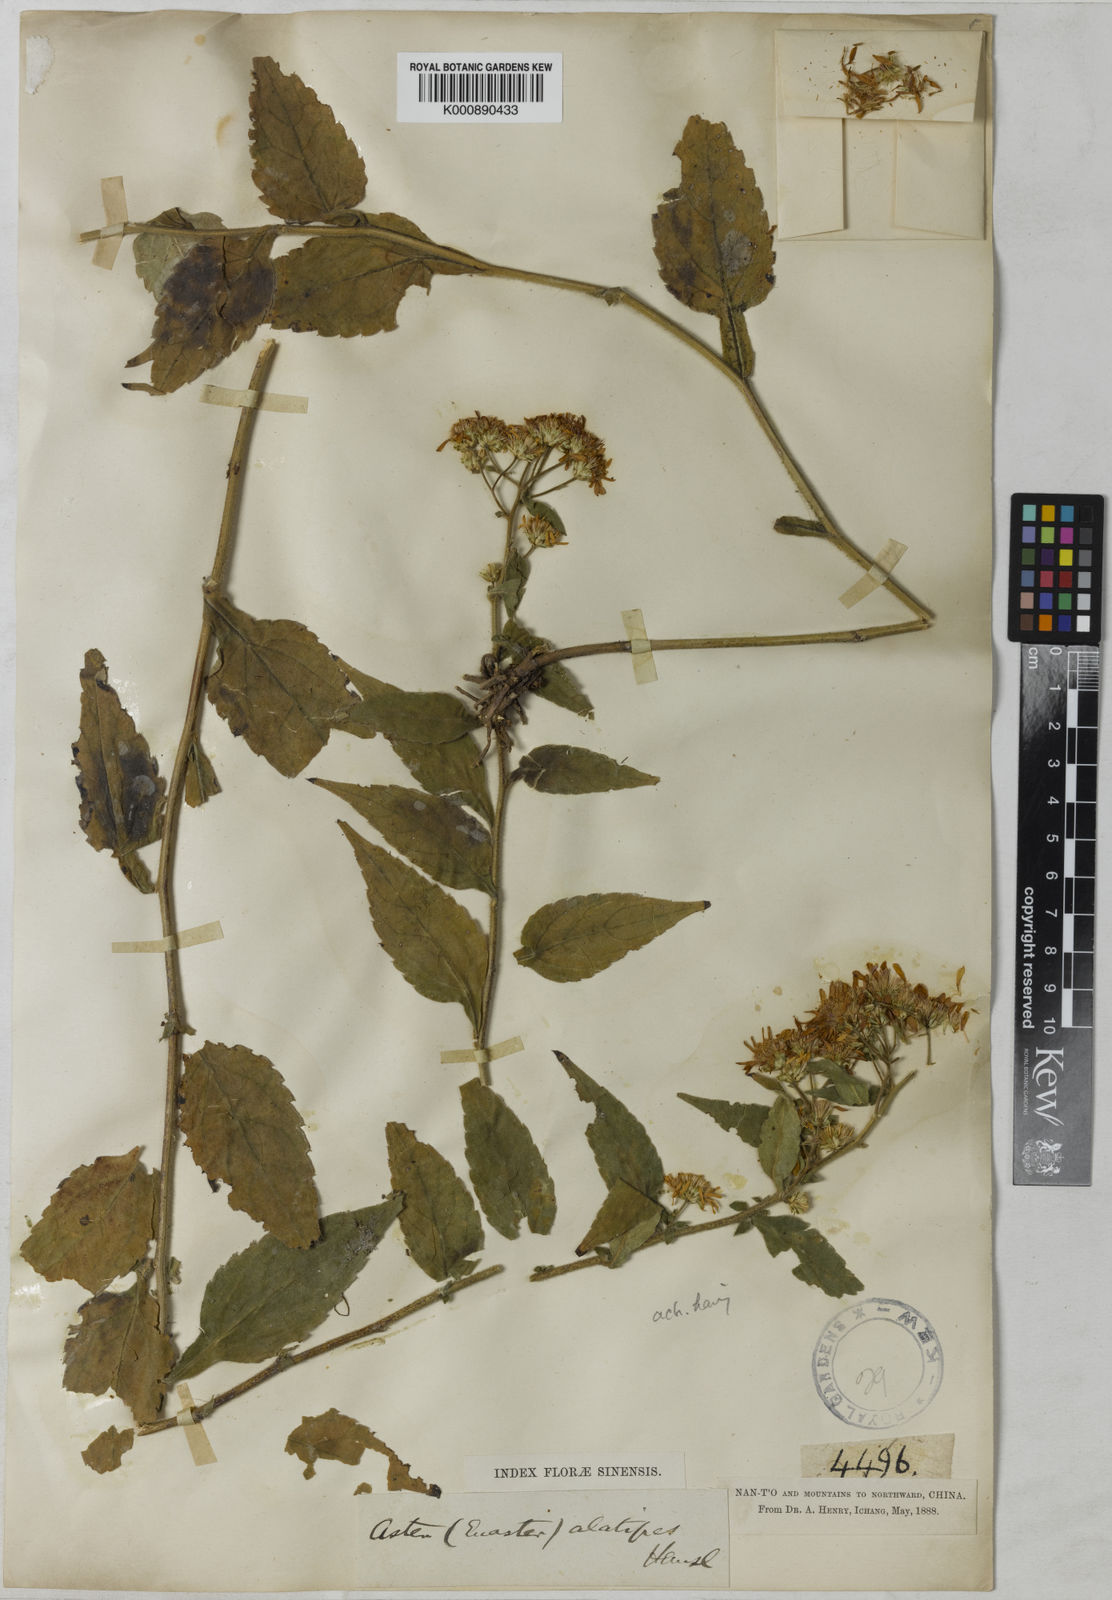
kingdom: Plantae
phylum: Tracheophyta
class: Magnoliopsida
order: Asterales
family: Asteraceae
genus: Aster
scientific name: Aster alatipes
